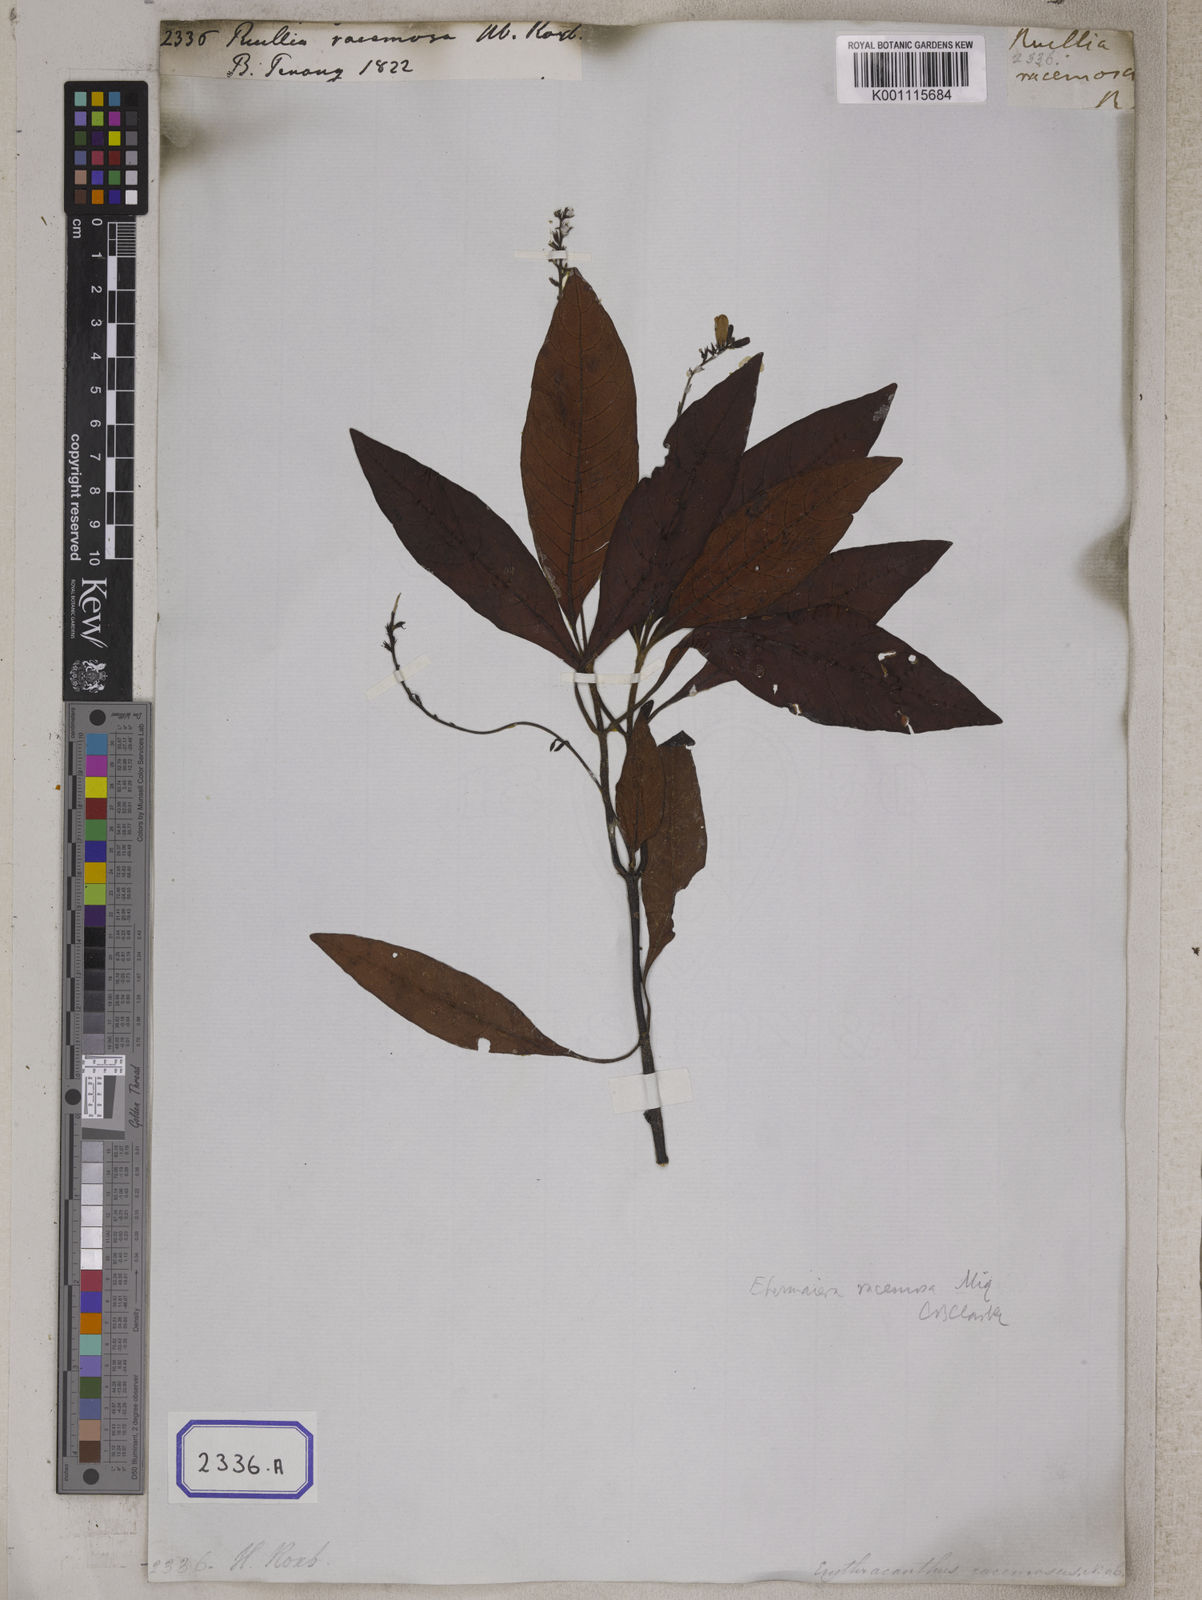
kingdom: Plantae
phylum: Tracheophyta
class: Magnoliopsida
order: Lamiales
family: Acanthaceae
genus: Staurogyne
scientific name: Staurogyne racemosa
